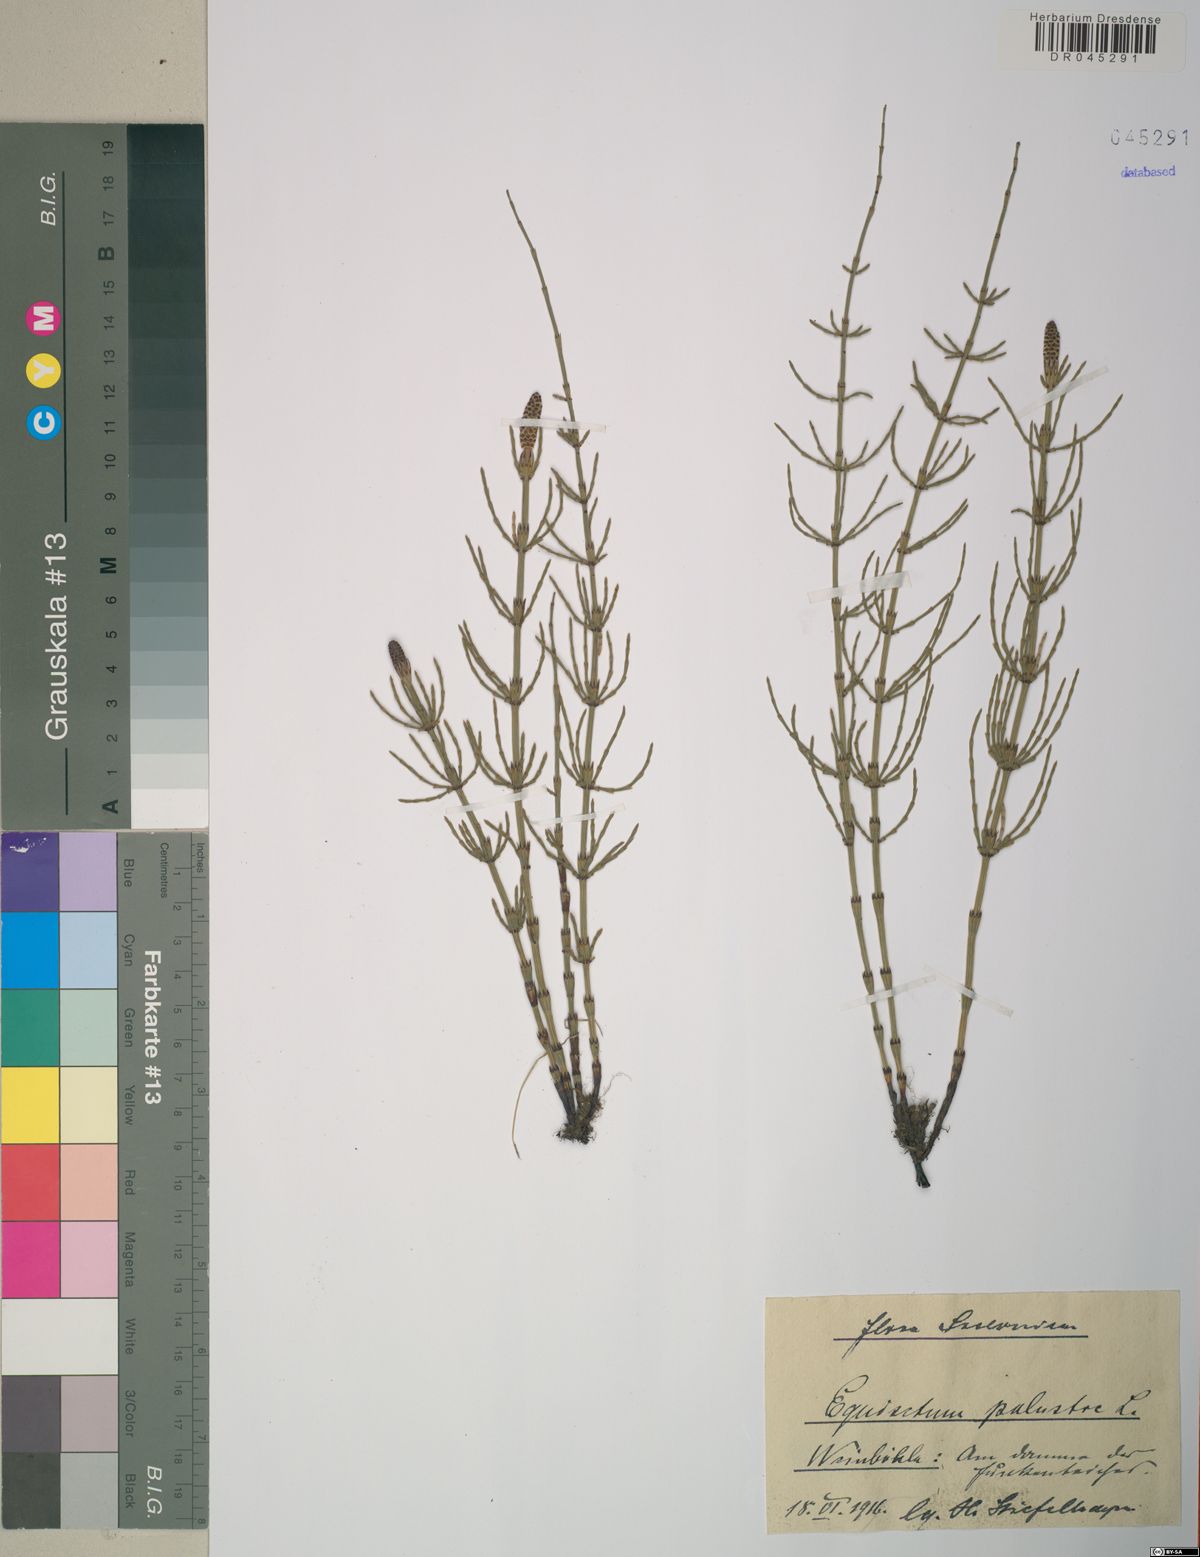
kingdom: Plantae
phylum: Tracheophyta
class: Polypodiopsida
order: Equisetales
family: Equisetaceae
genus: Equisetum
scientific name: Equisetum palustre
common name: Marsh horsetail
